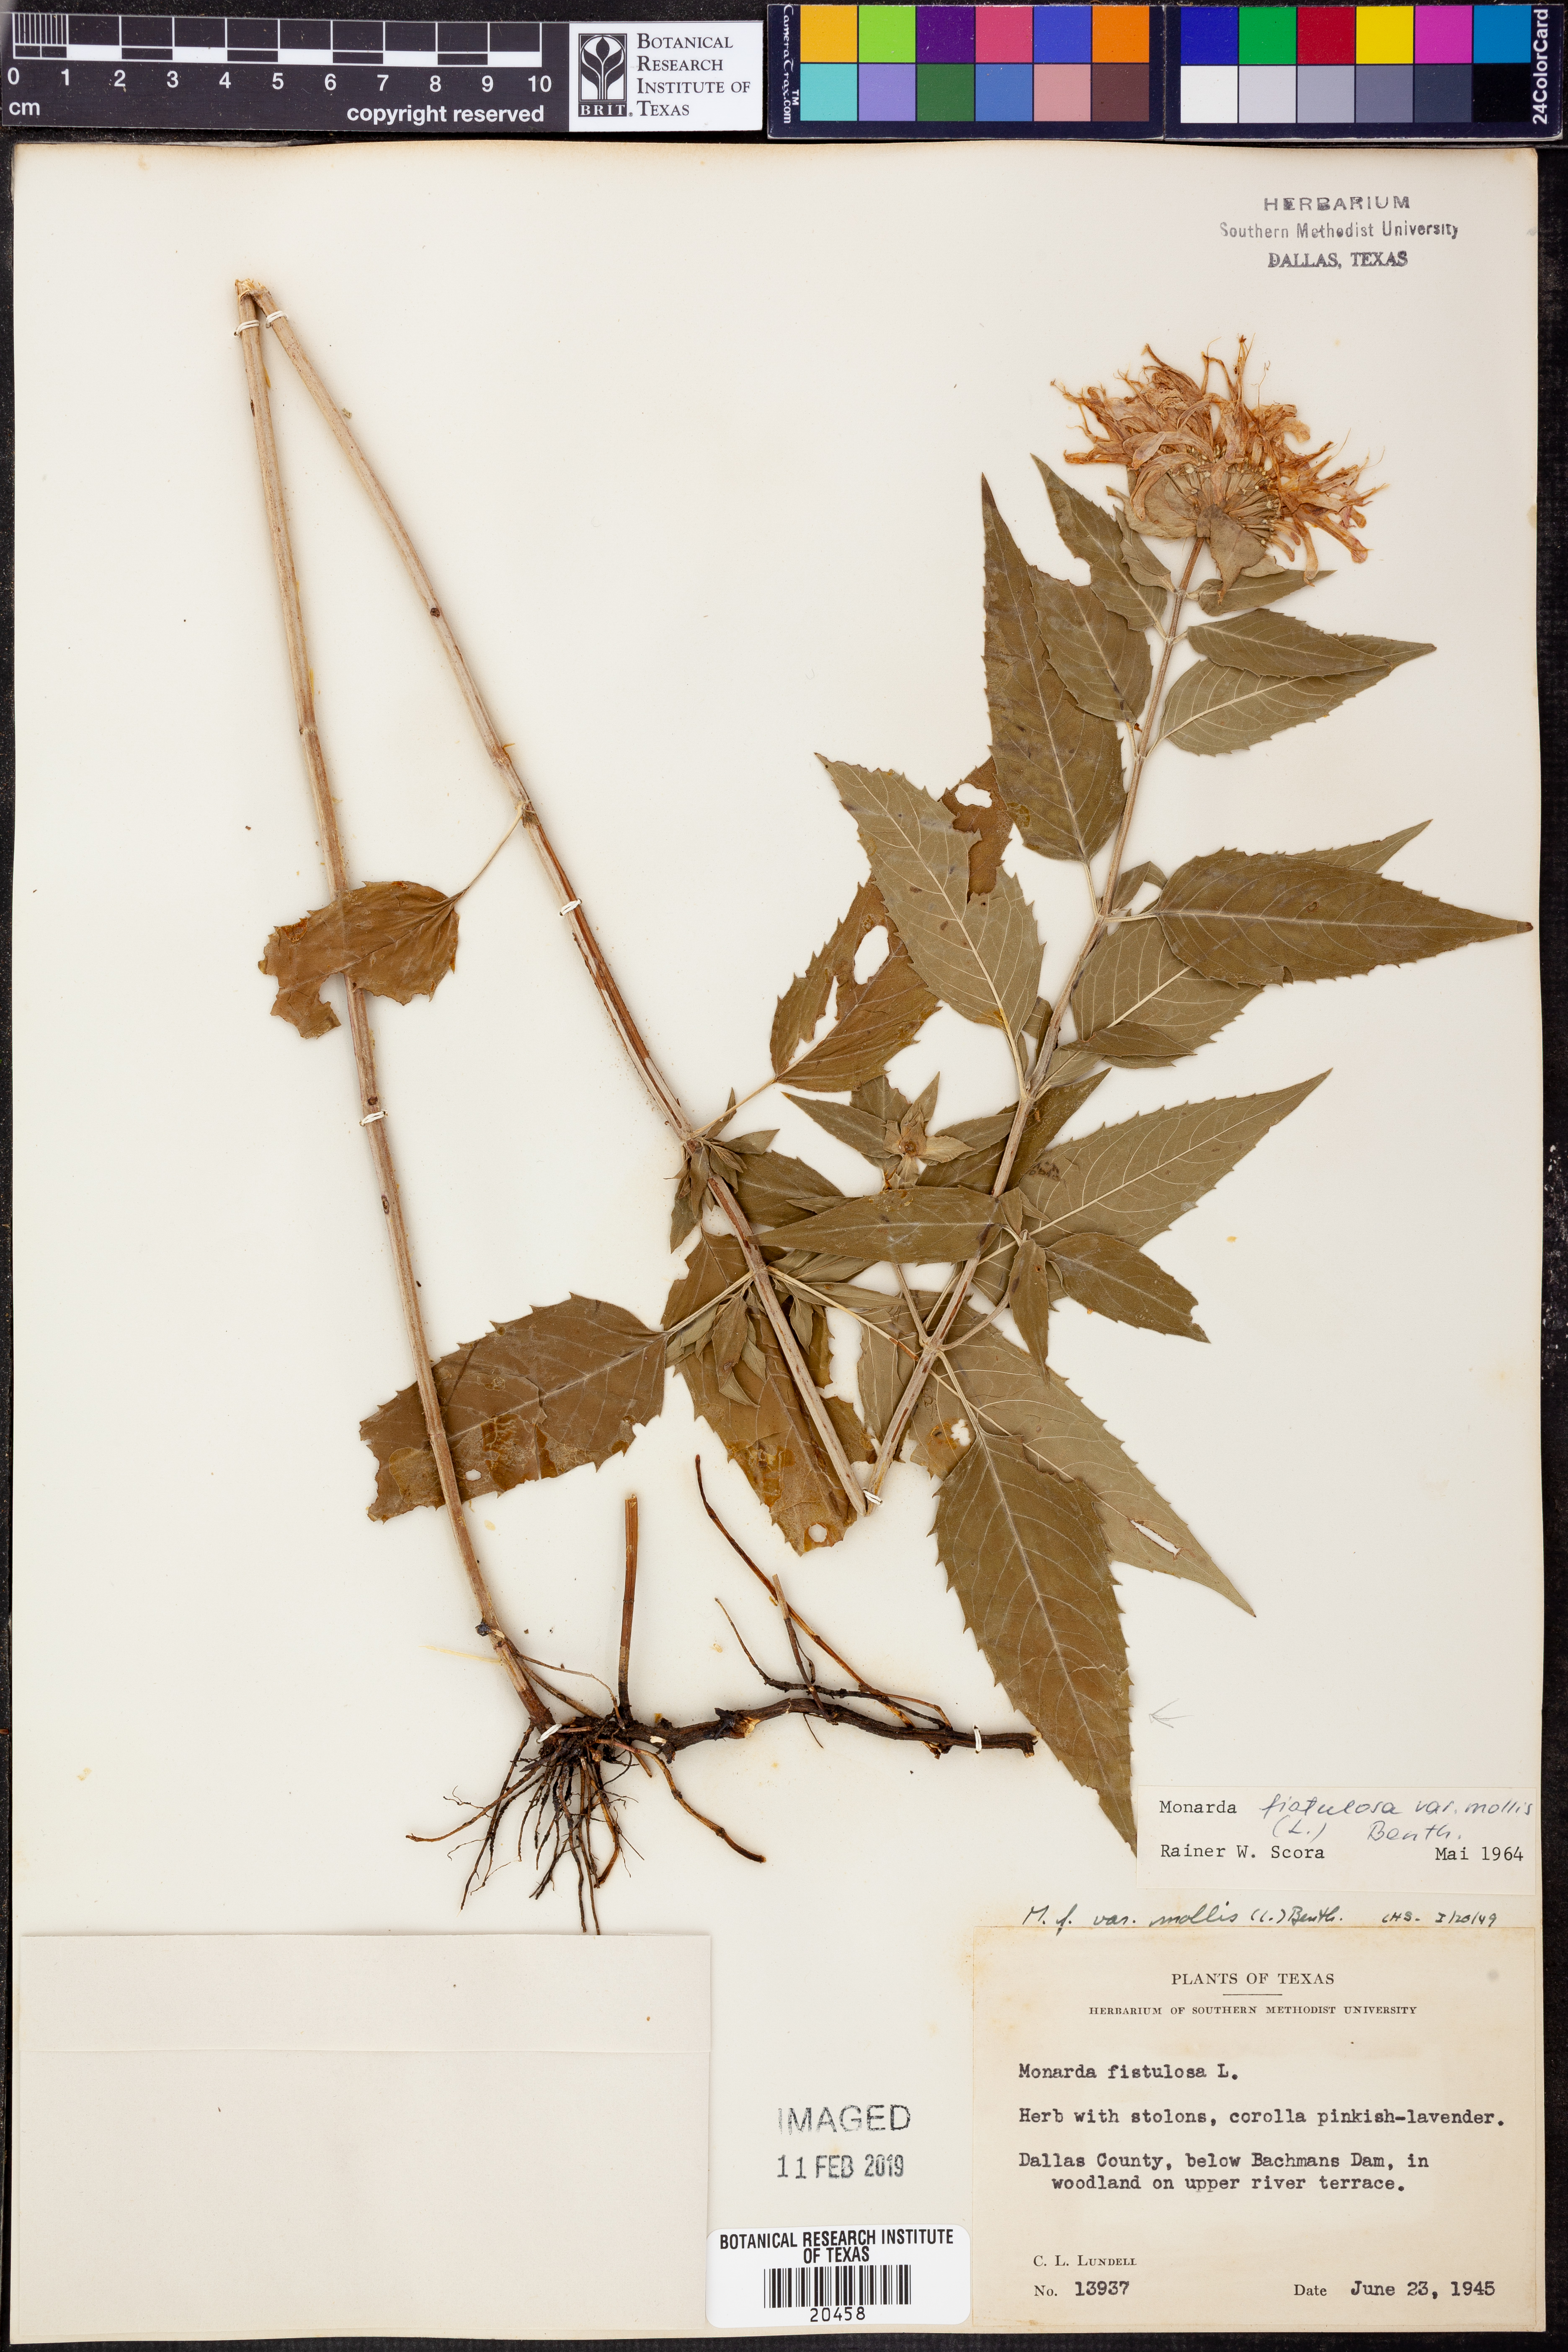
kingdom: Plantae
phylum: Tracheophyta
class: Magnoliopsida
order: Lamiales
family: Lamiaceae
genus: Monarda
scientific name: Monarda fistulosa
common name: Purple beebalm
